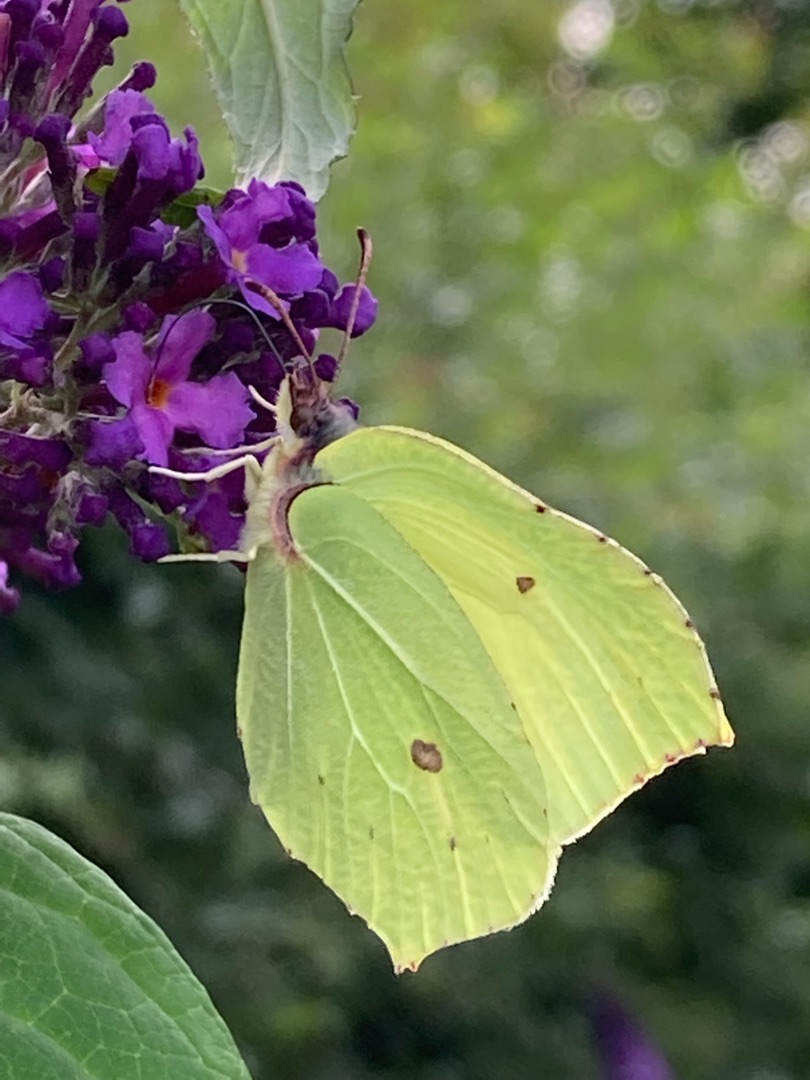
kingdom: Animalia
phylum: Arthropoda
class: Insecta
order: Lepidoptera
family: Pieridae
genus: Gonepteryx
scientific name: Gonepteryx rhamni
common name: Citronsommerfugl
